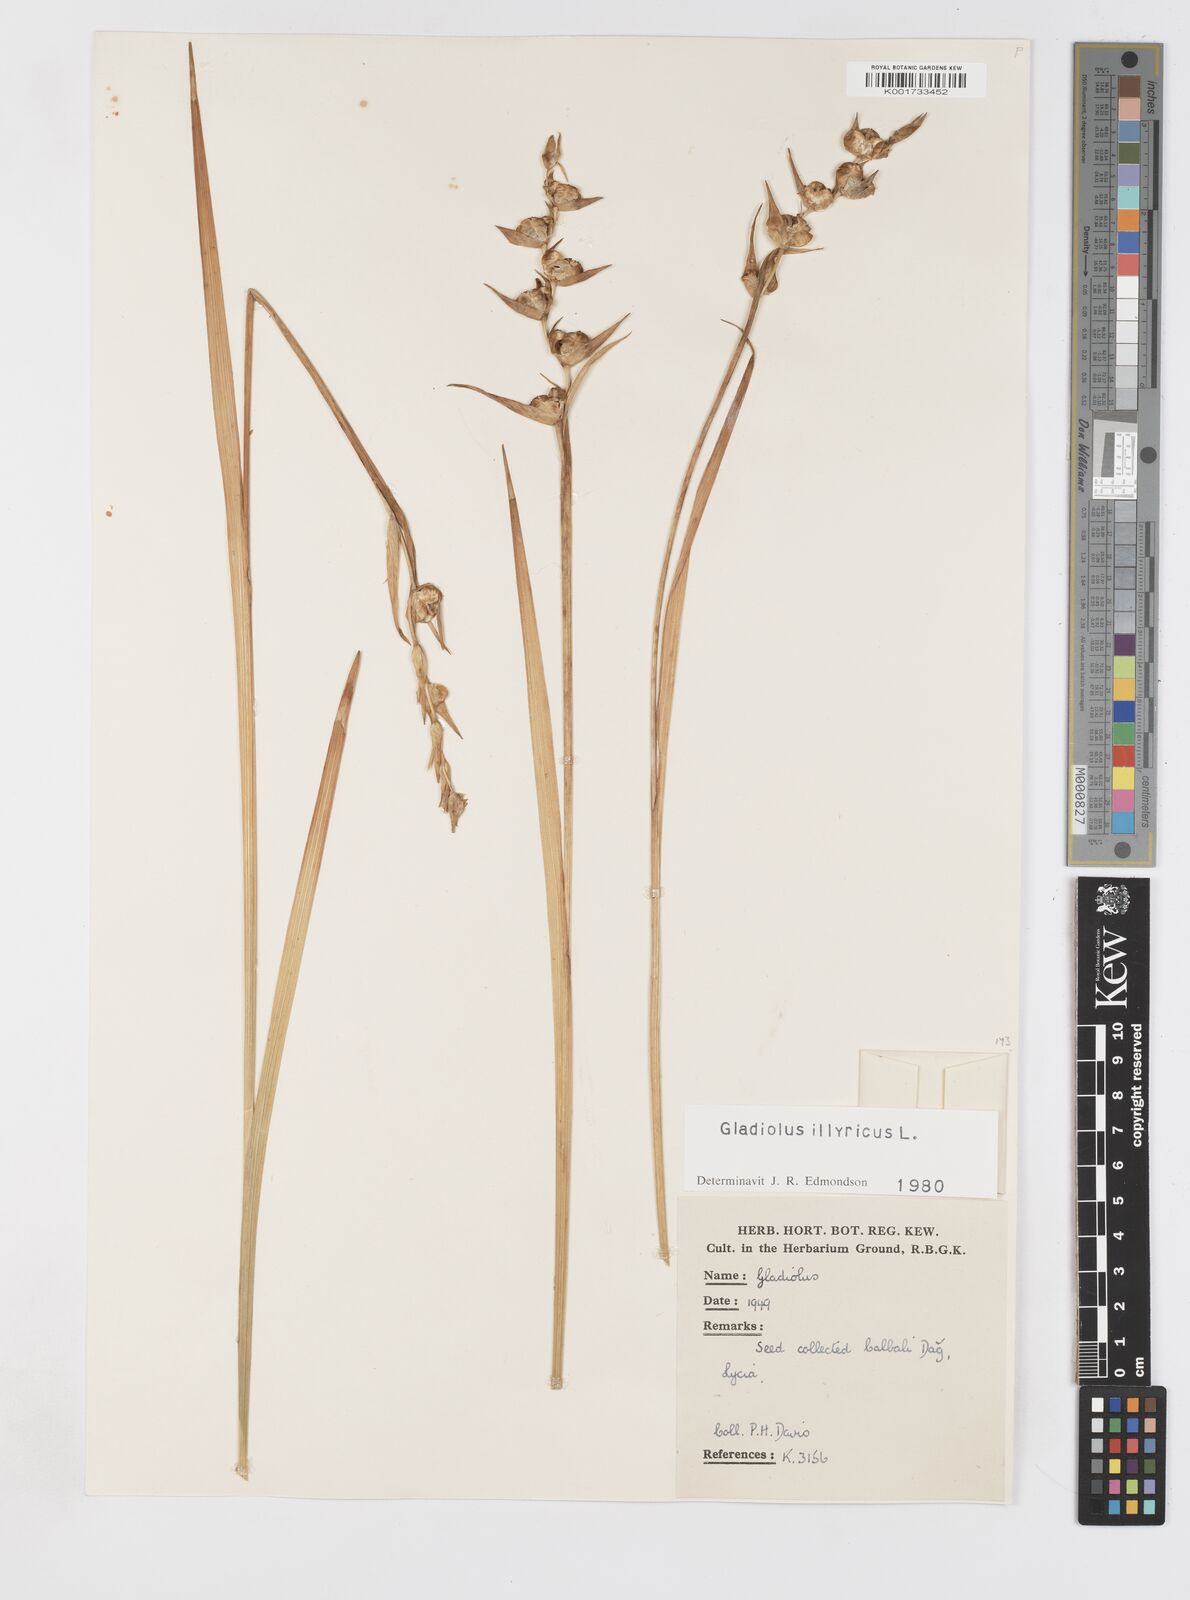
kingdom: Plantae
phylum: Tracheophyta
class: Liliopsida
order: Asparagales
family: Iridaceae
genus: Gladiolus
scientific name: Gladiolus illyricus
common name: Wild gladiolus
